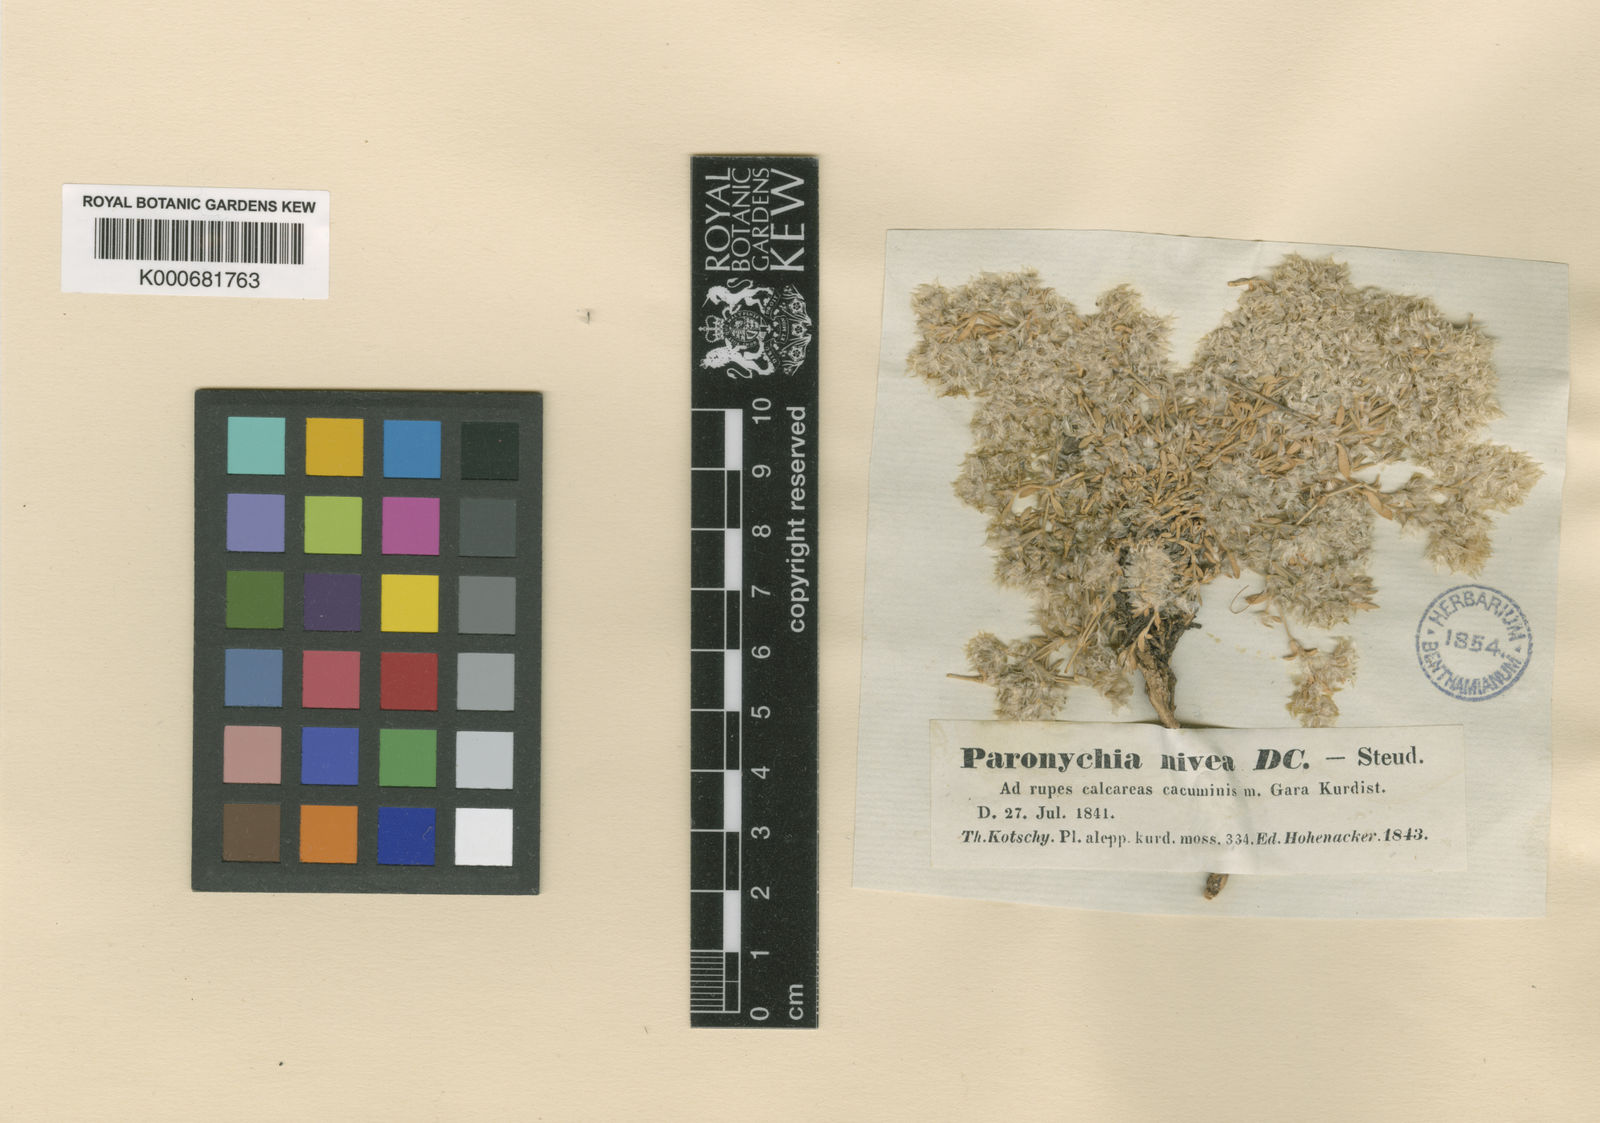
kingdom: Plantae
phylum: Tracheophyta
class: Magnoliopsida
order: Caryophyllales
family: Caryophyllaceae
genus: Paronychia
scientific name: Paronychia kurdica
